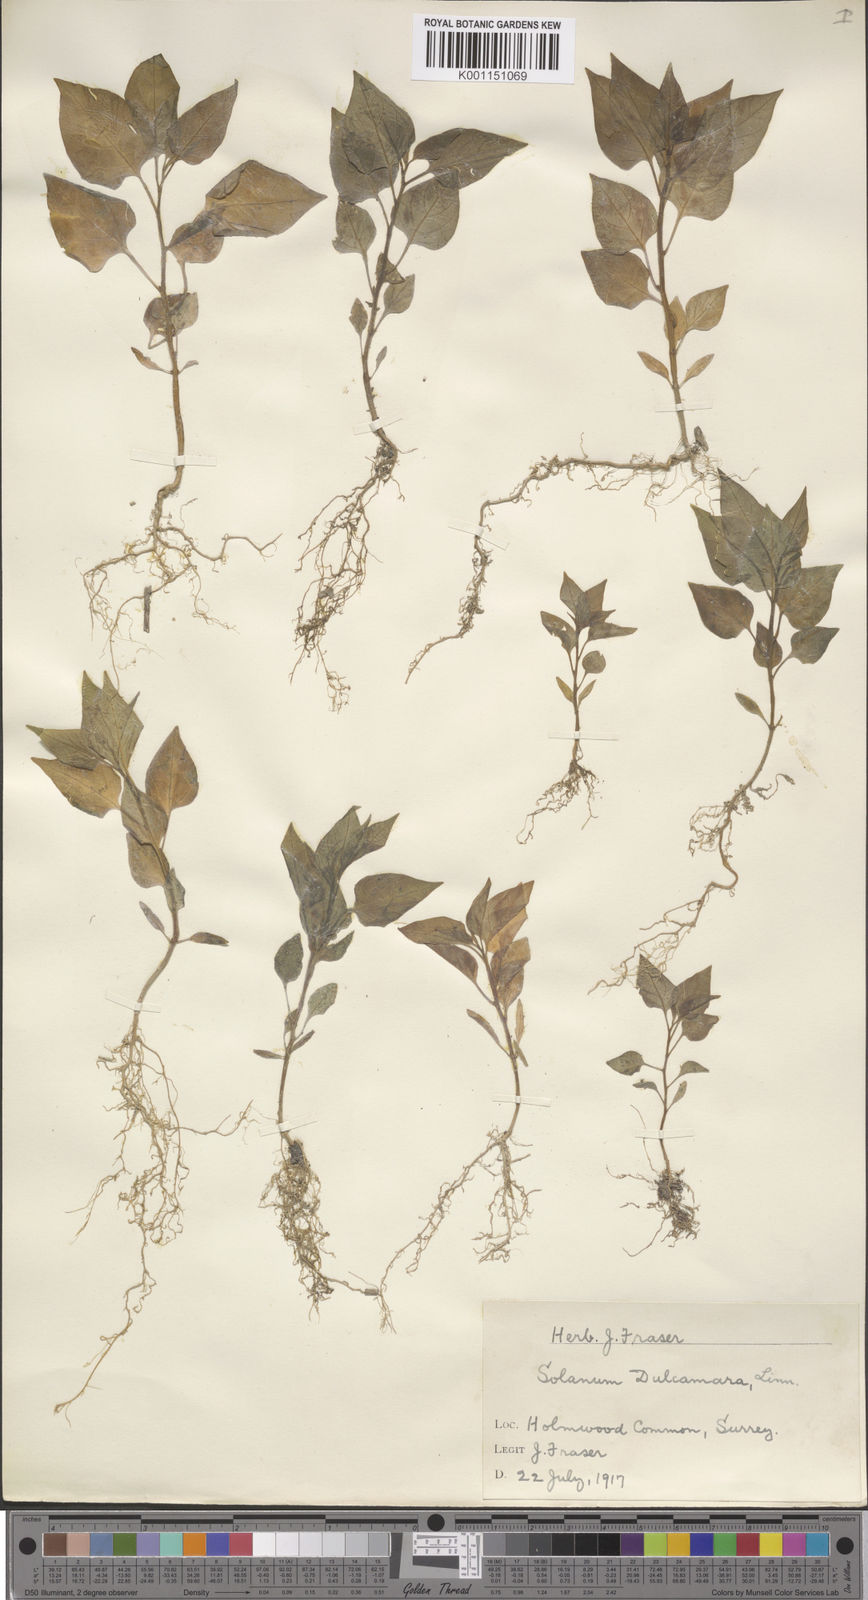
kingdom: Plantae
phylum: Tracheophyta
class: Magnoliopsida
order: Solanales
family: Solanaceae
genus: Solanum
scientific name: Solanum dulcamara
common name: Climbing nightshade
